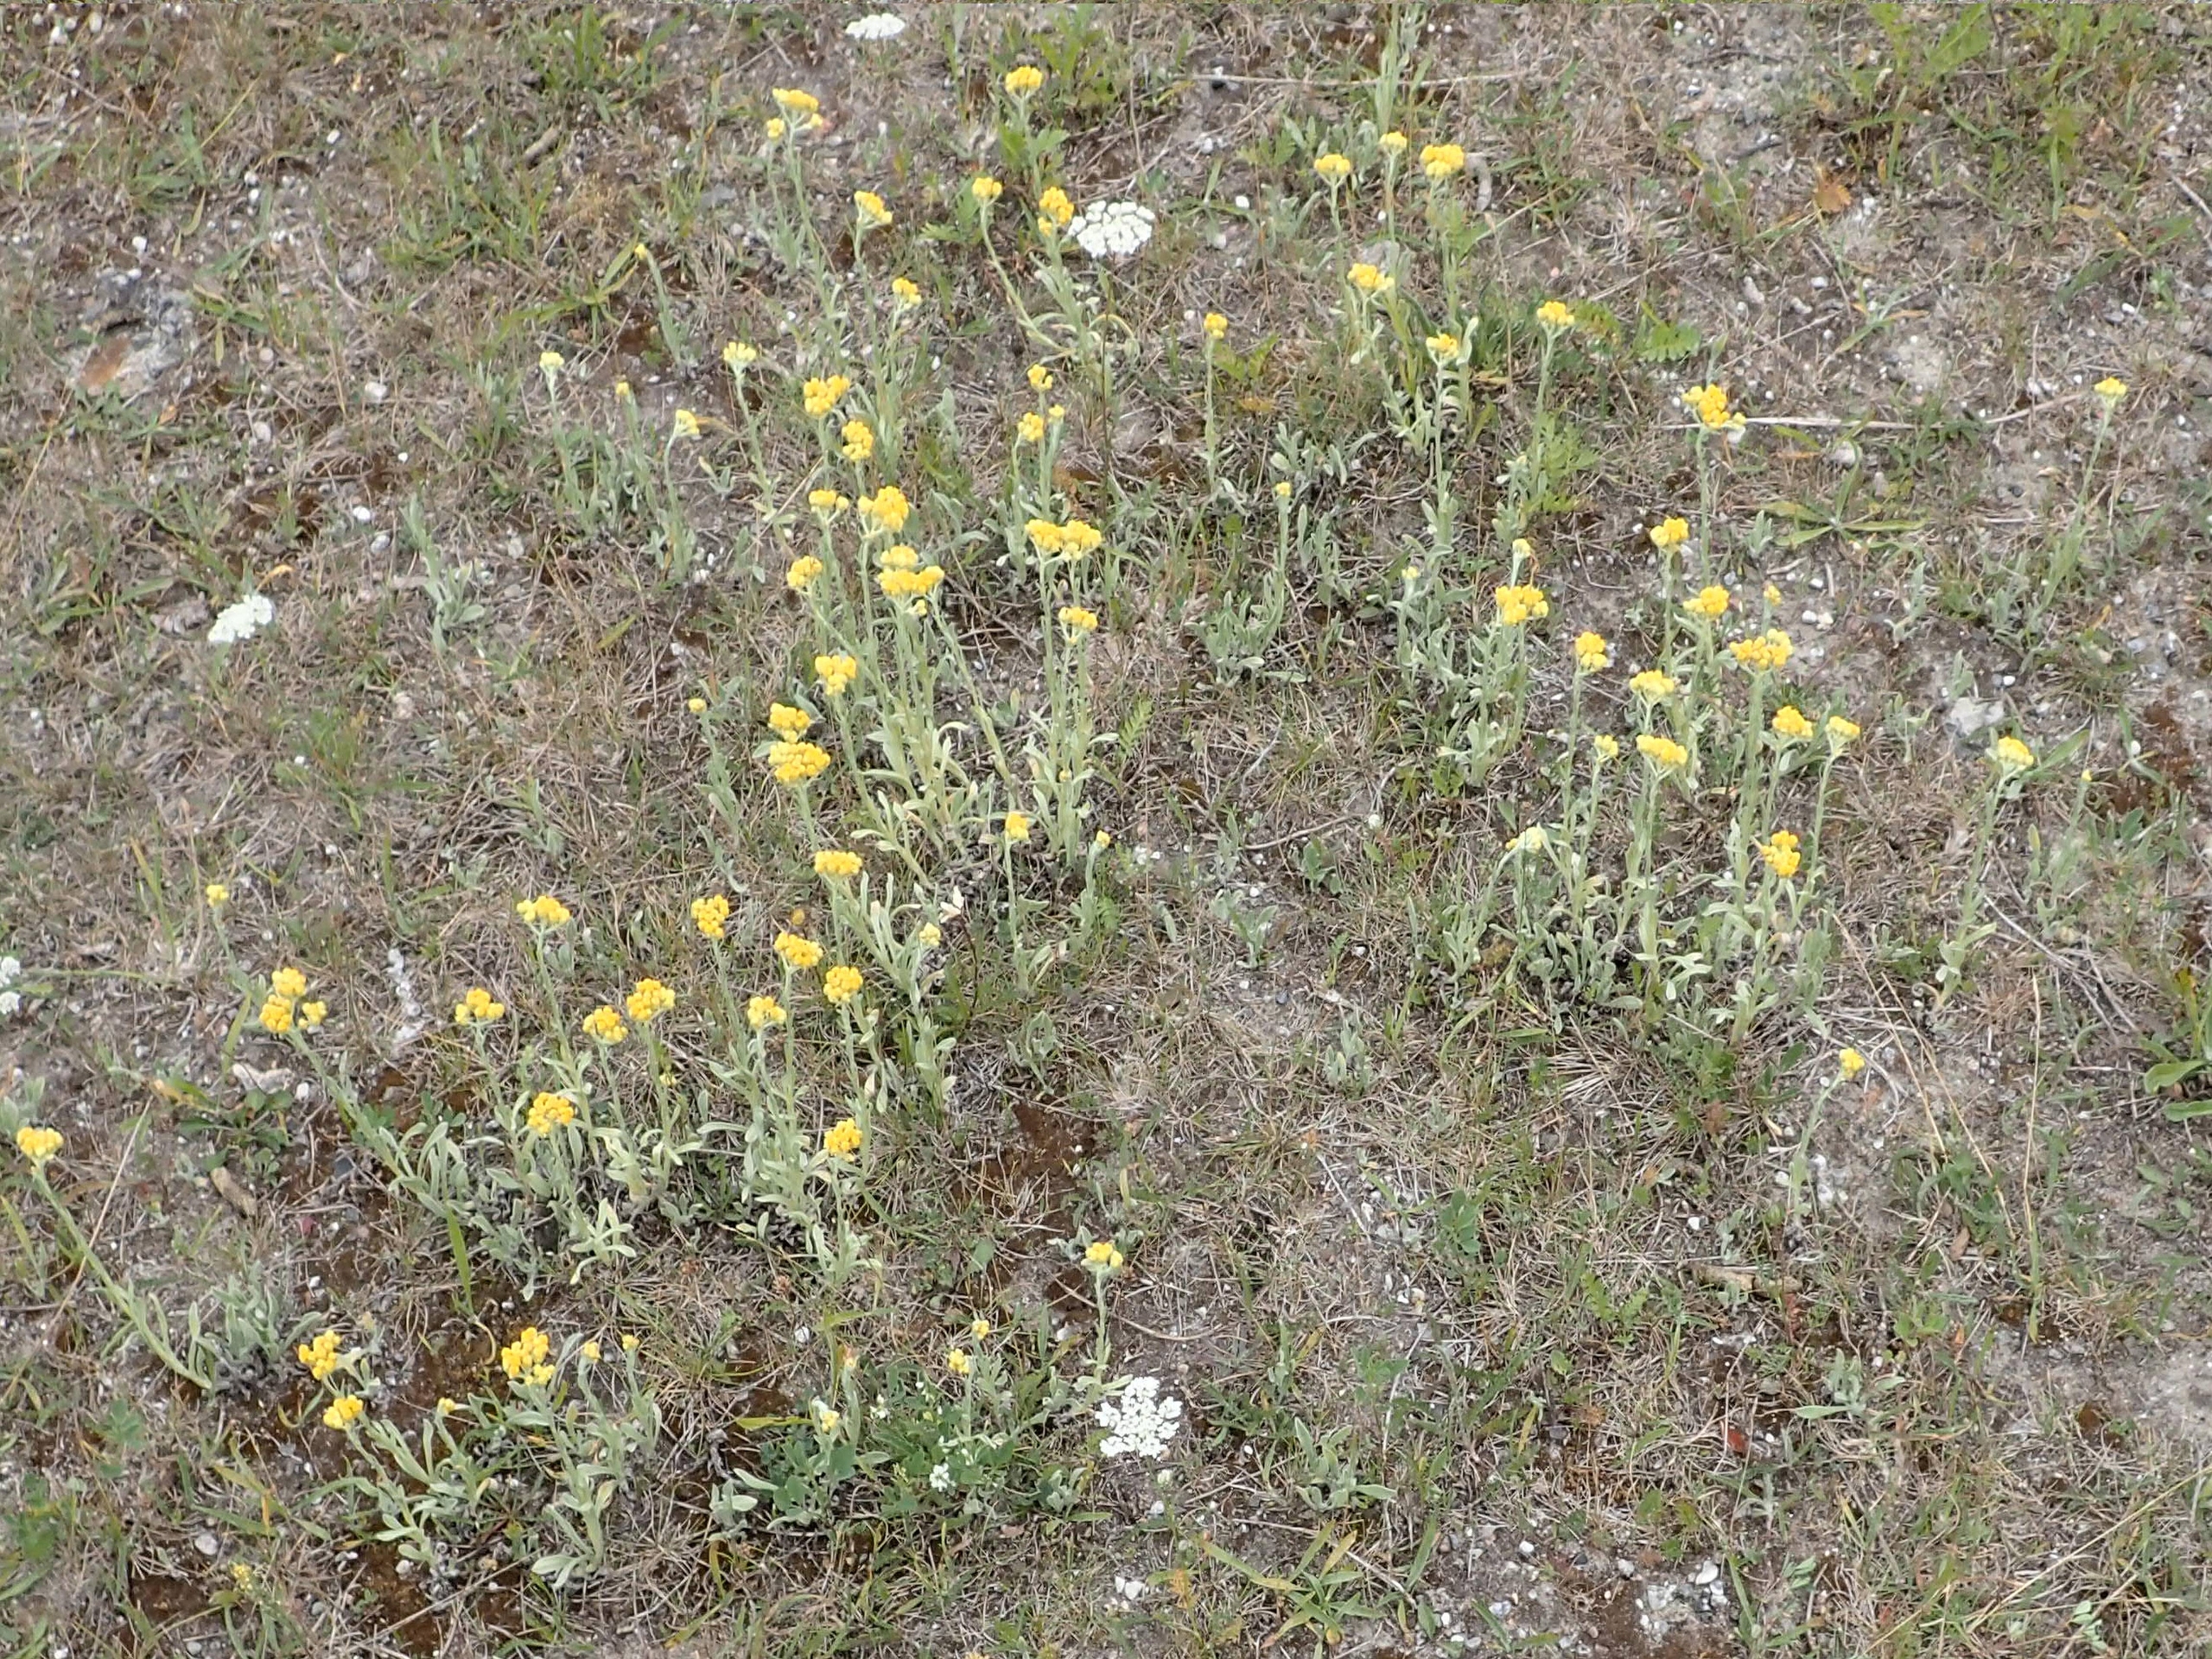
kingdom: Plantae
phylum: Tracheophyta
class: Magnoliopsida
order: Asterales
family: Asteraceae
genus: Helichrysum
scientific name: Helichrysum arenarium
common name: Gul evighedsblomst
